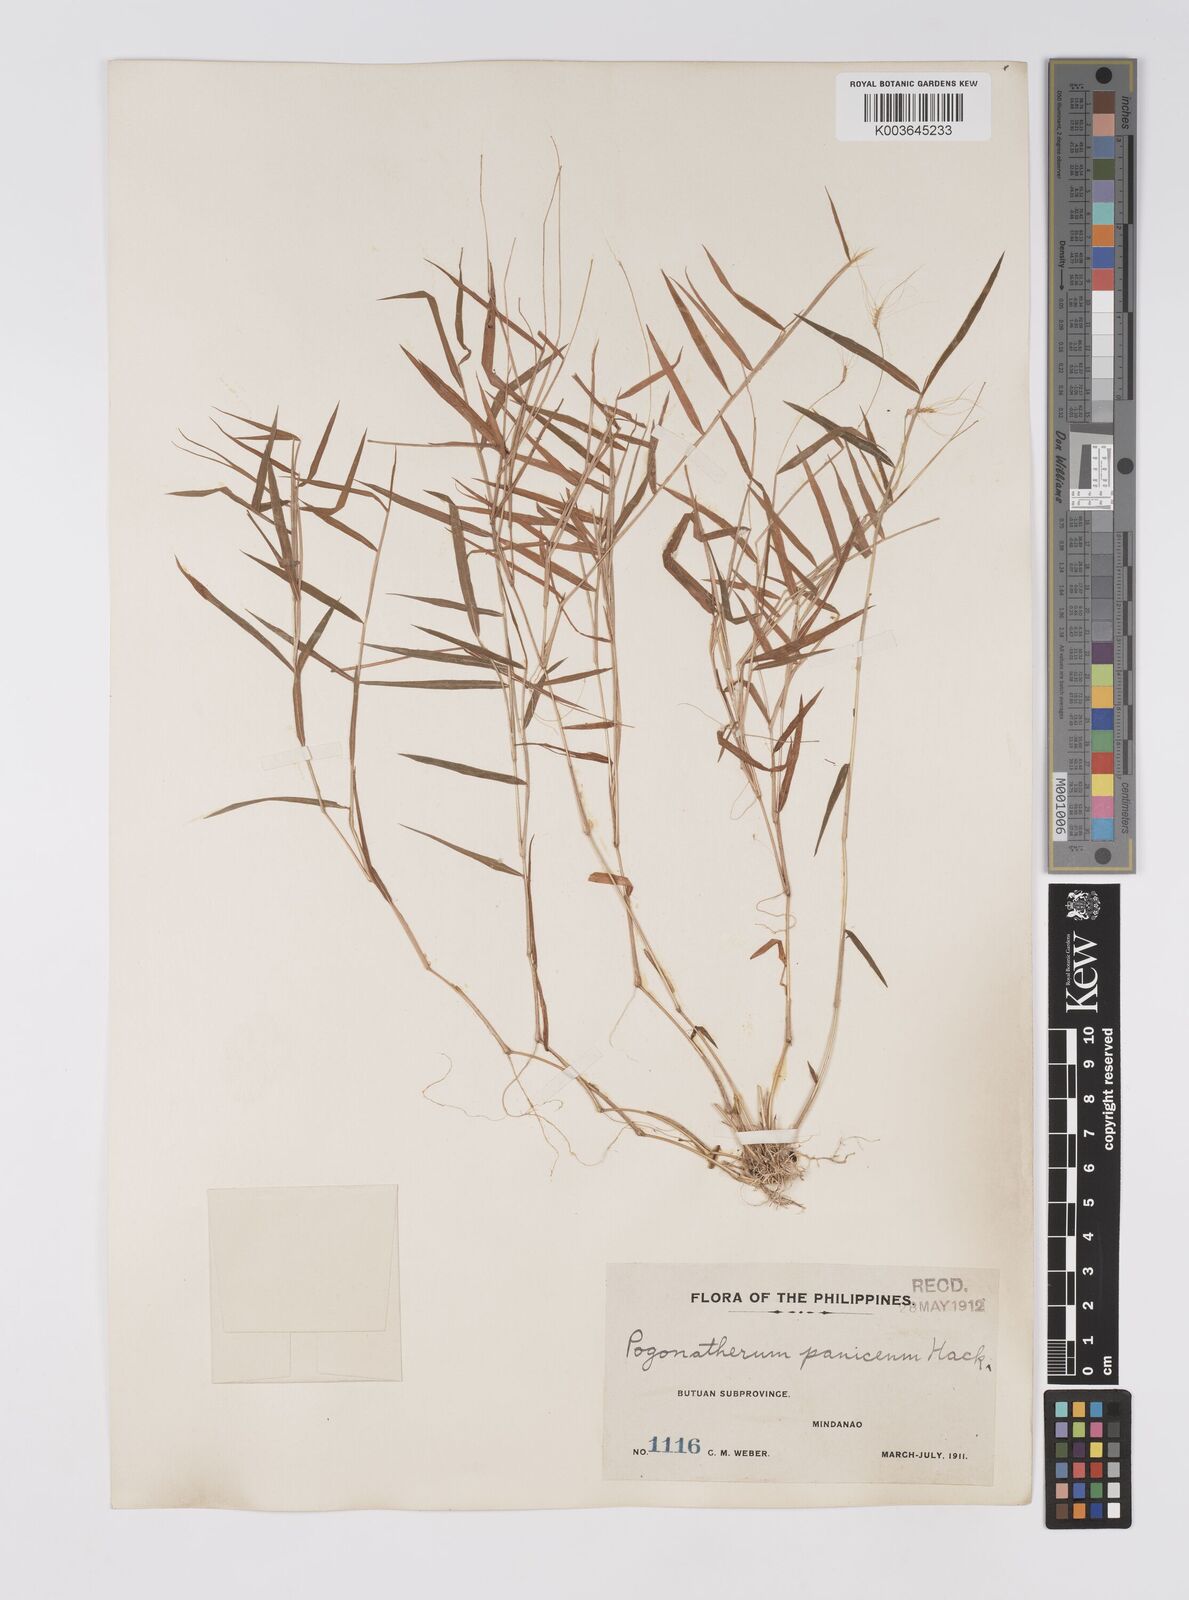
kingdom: Plantae
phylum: Tracheophyta
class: Liliopsida
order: Poales
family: Poaceae
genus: Pogonatherum
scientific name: Pogonatherum crinitum
